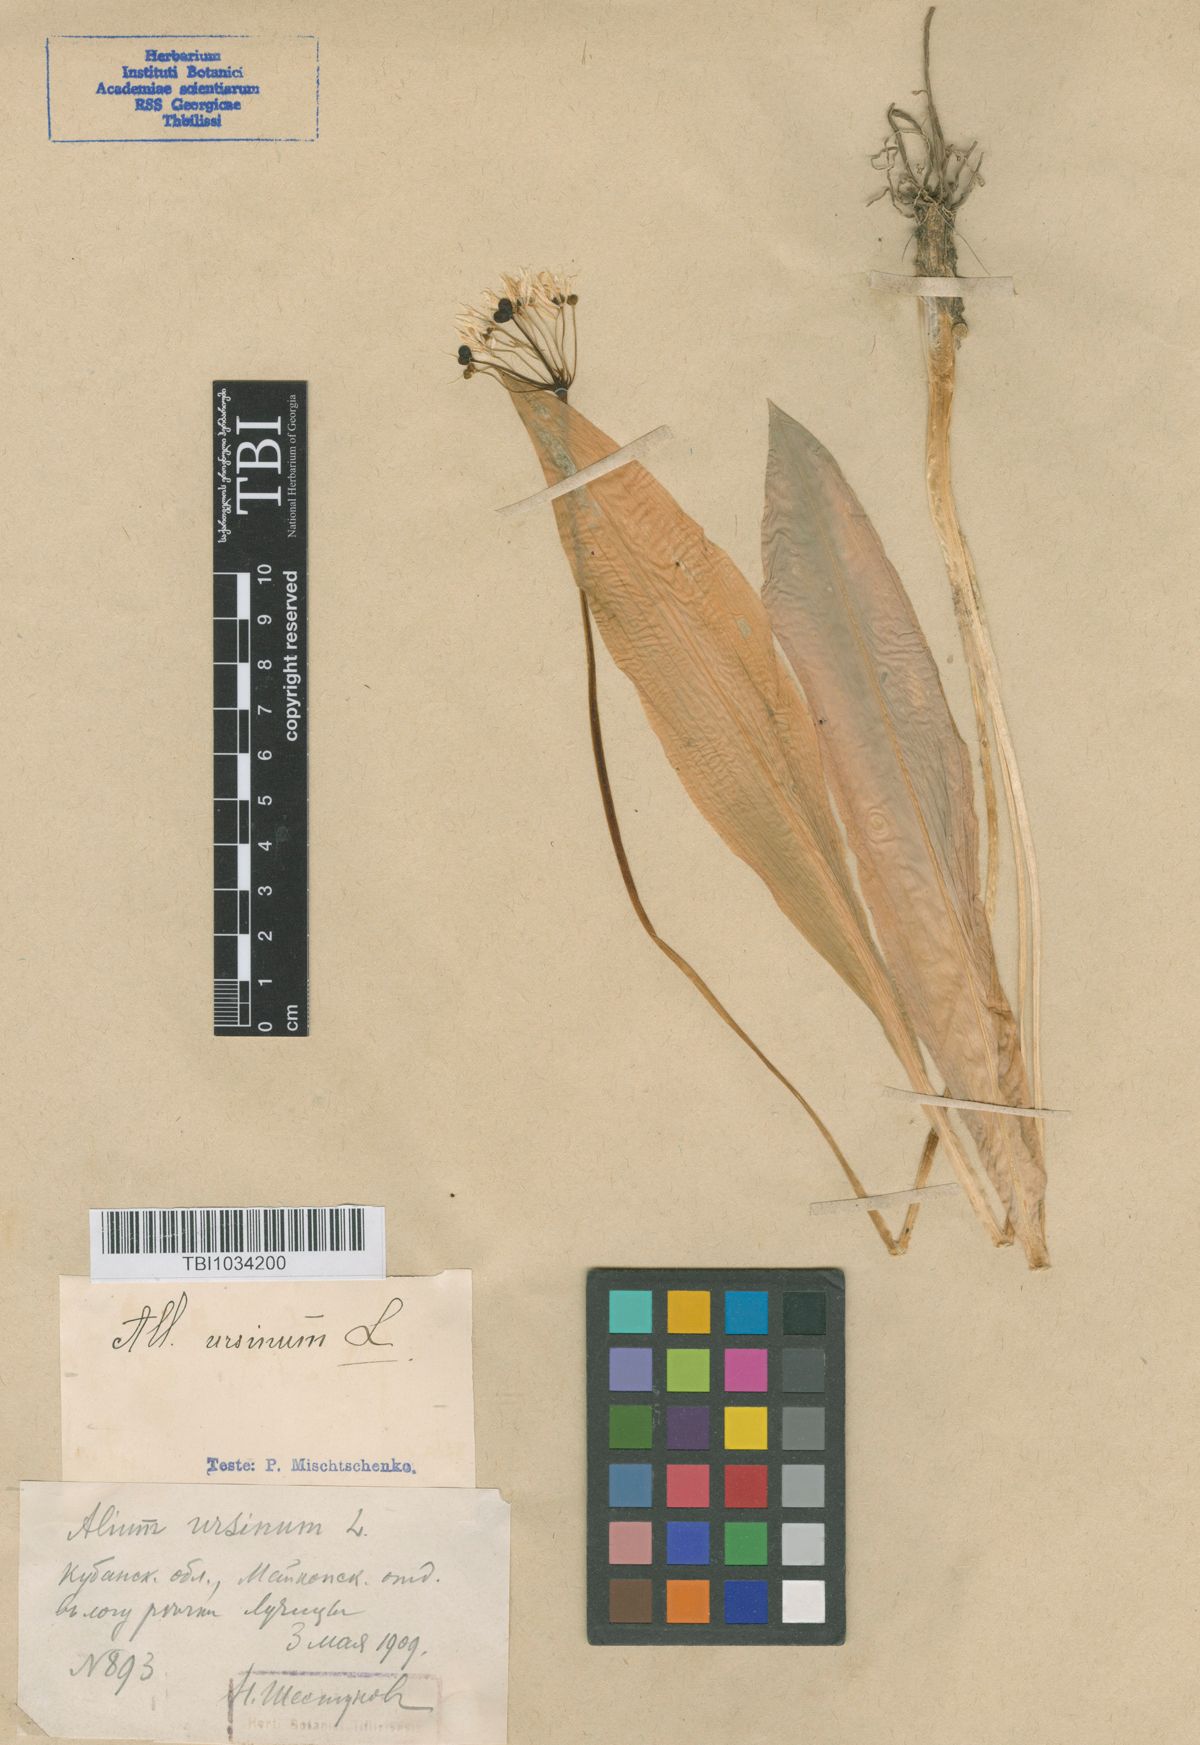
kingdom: Plantae
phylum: Tracheophyta
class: Liliopsida
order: Asparagales
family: Amaryllidaceae
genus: Allium
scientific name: Allium ursinum
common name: Ramsons
